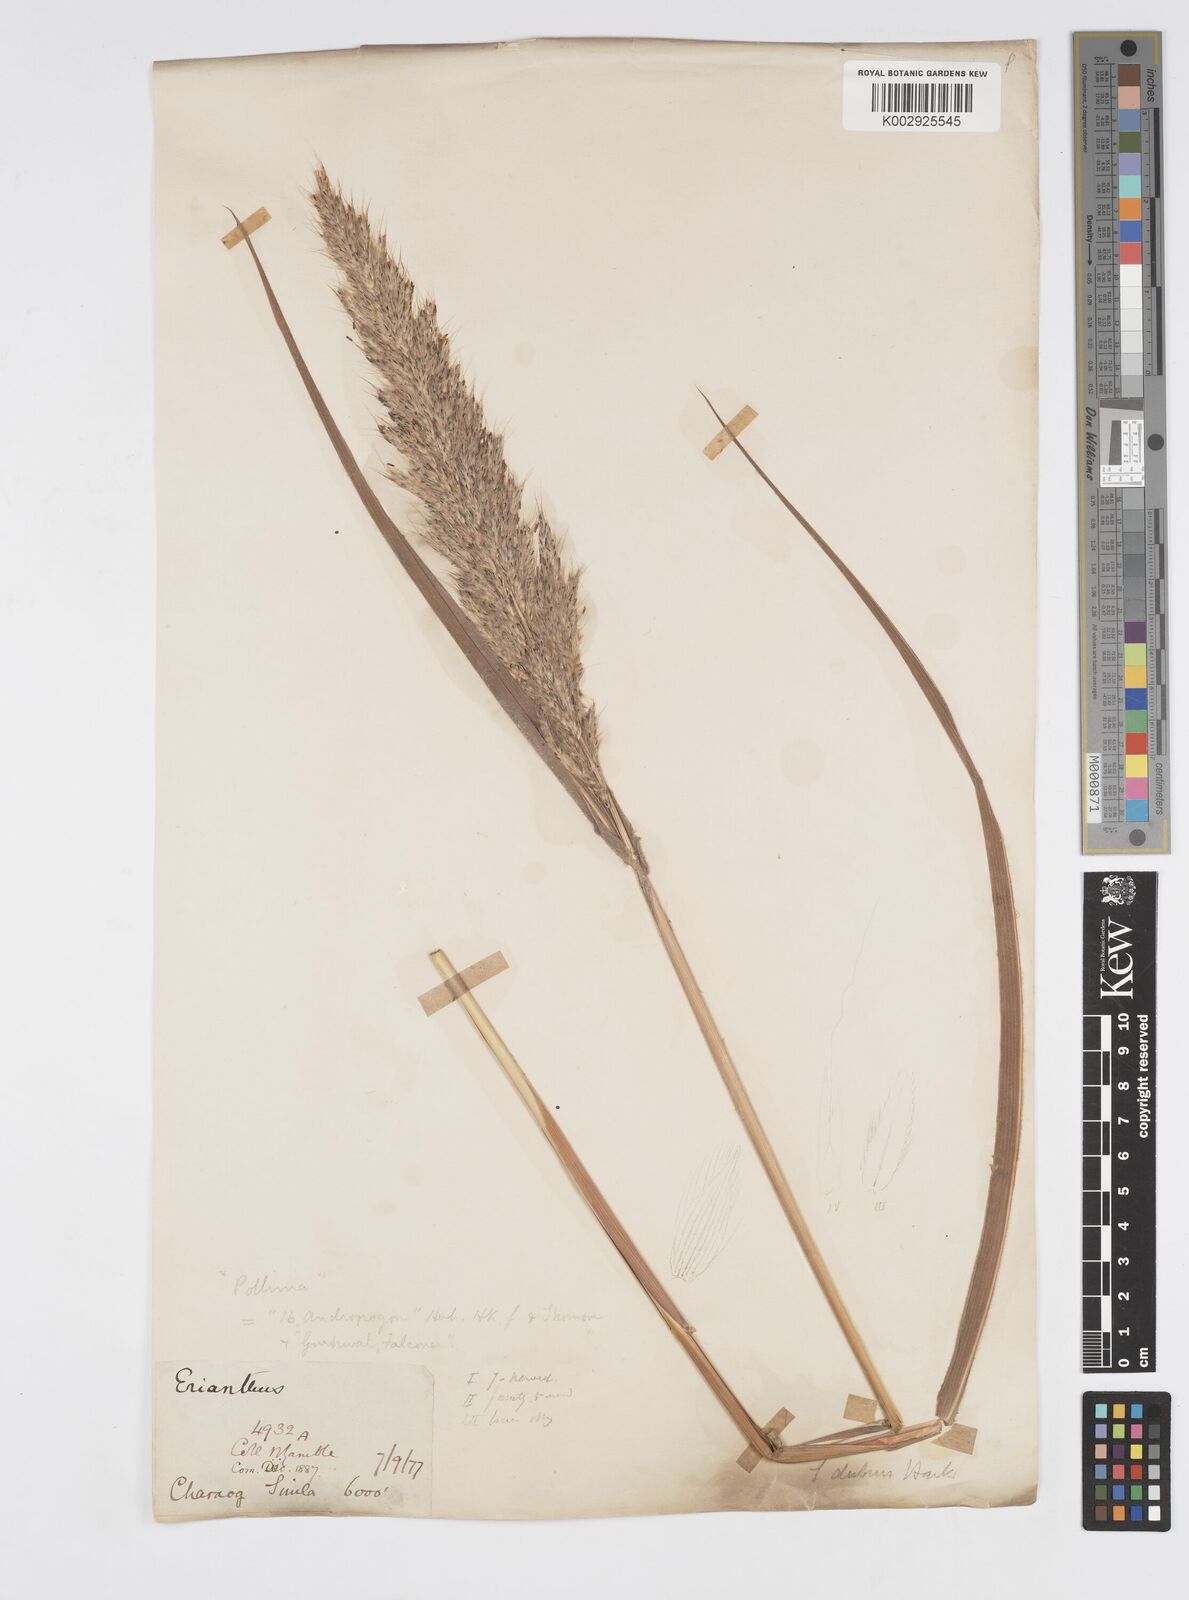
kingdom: Plantae
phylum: Tracheophyta
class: Liliopsida
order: Poales
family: Poaceae
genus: Spodiopogon
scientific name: Spodiopogon cotulifer
